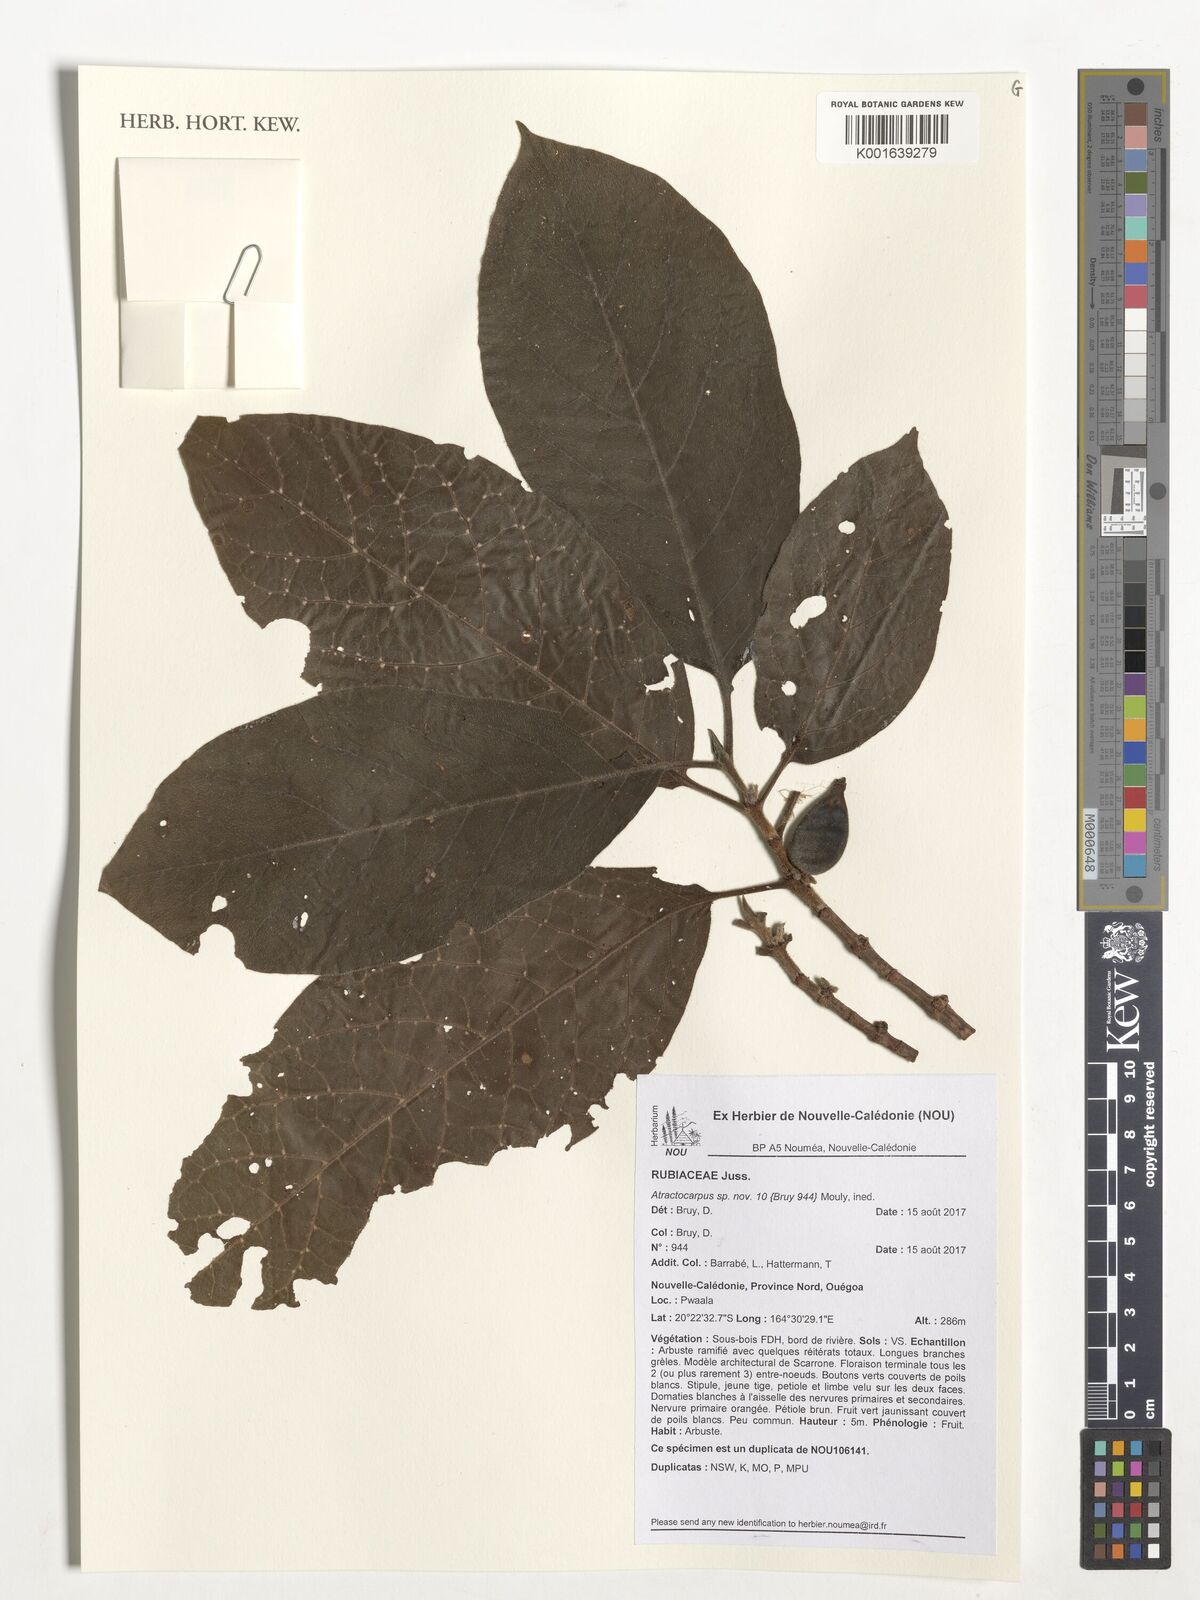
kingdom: Plantae
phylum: Tracheophyta
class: Magnoliopsida
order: Gentianales
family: Rubiaceae
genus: Atractocarpus
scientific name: Atractocarpus
